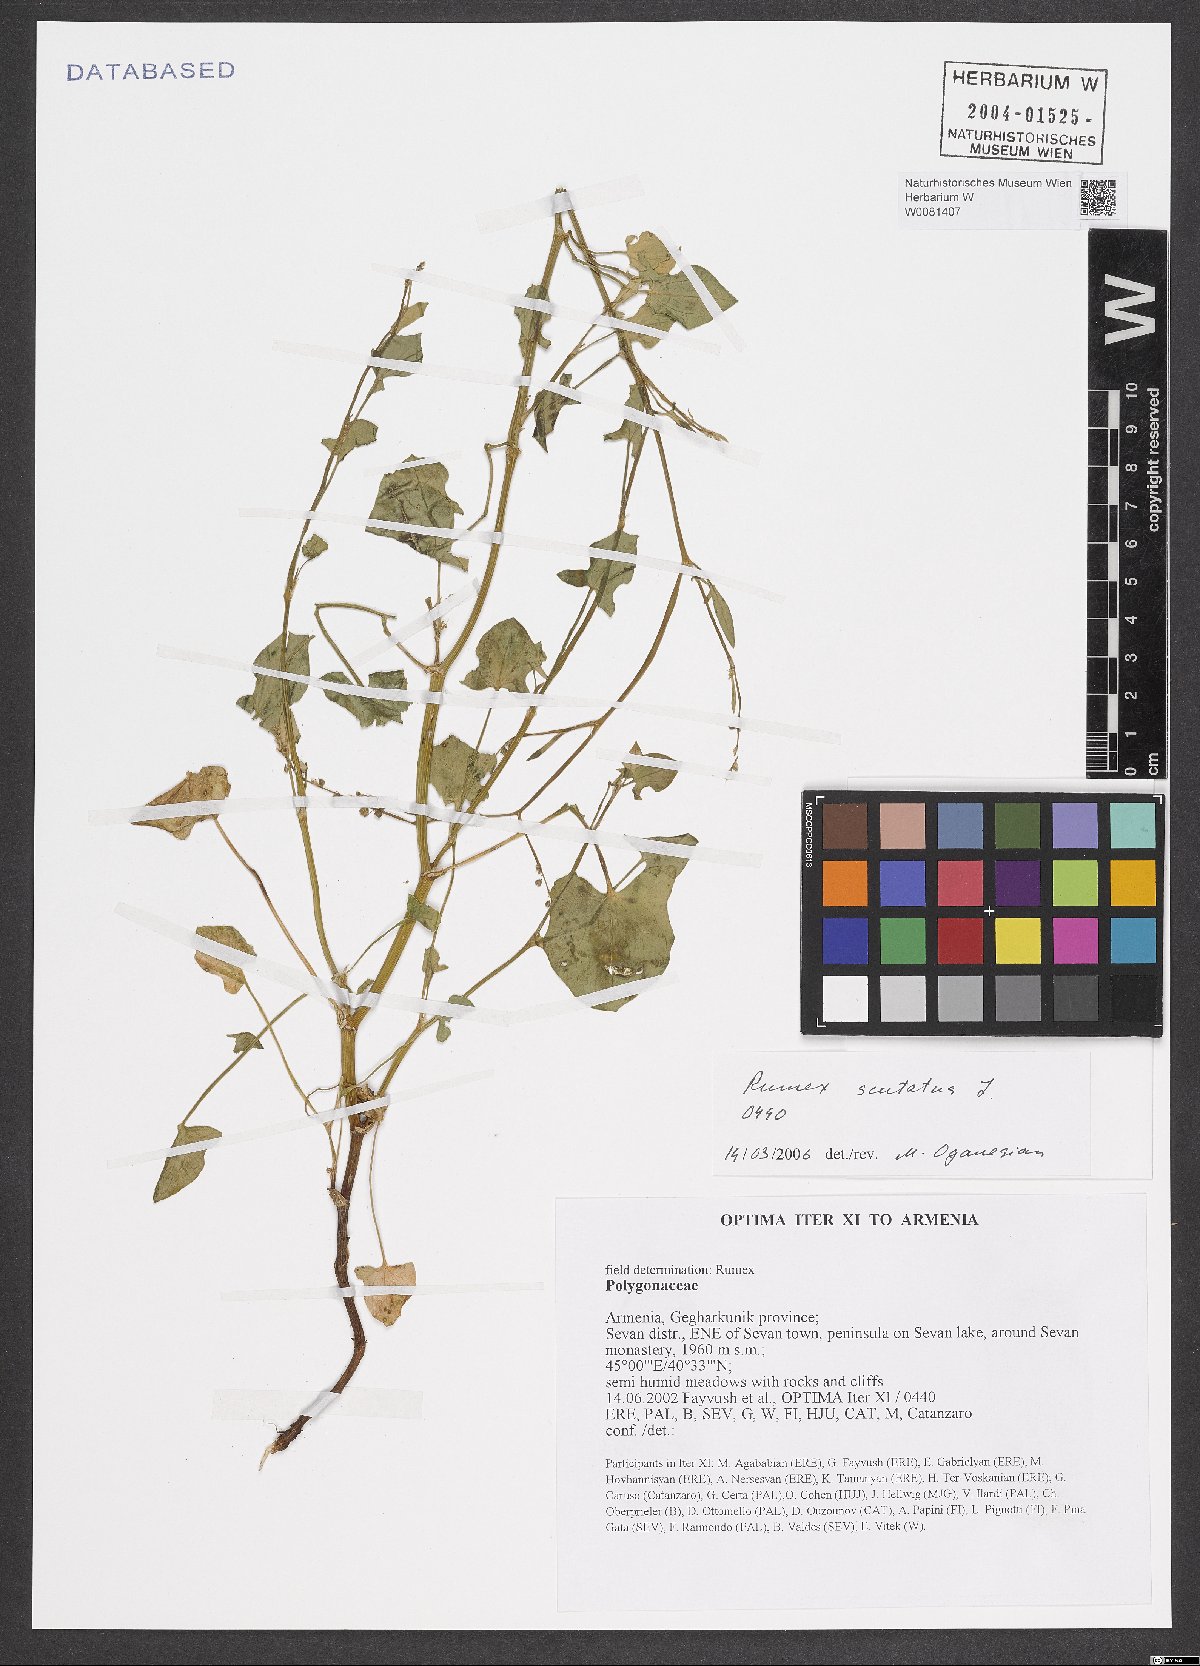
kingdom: Plantae
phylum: Tracheophyta
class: Magnoliopsida
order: Caryophyllales
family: Polygonaceae
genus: Rumex
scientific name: Rumex scutatus
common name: French sorrel
